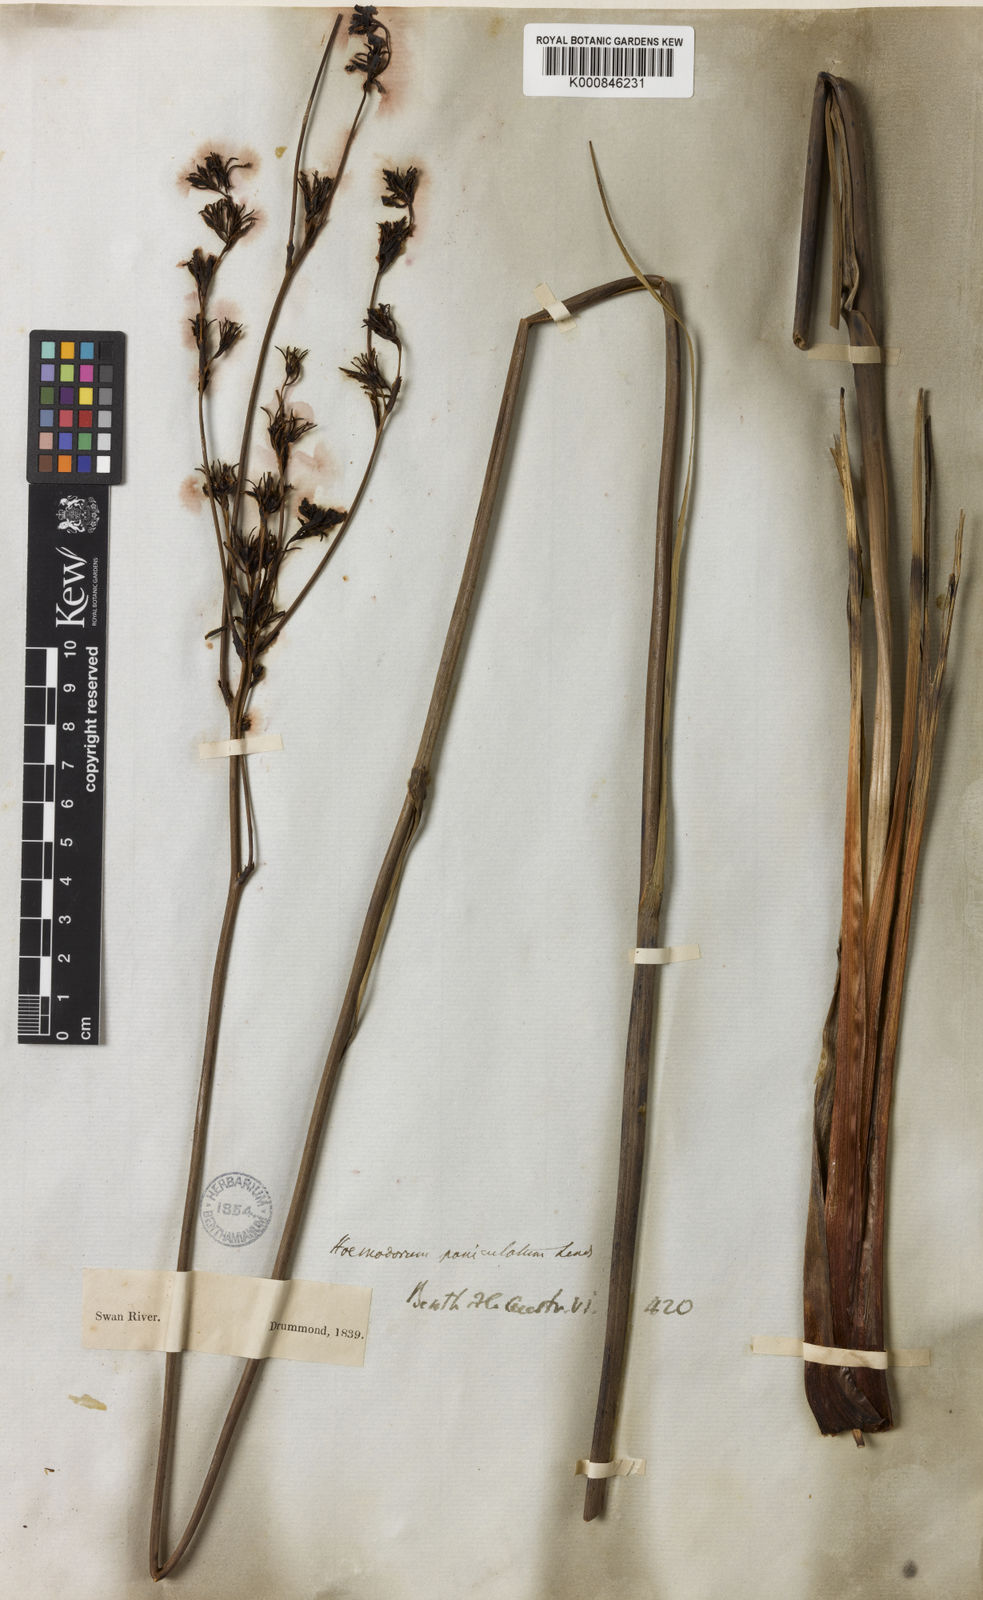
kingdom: Plantae
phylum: Tracheophyta
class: Liliopsida
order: Commelinales
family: Haemodoraceae
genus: Haemodorum
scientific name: Haemodorum paniculatum
